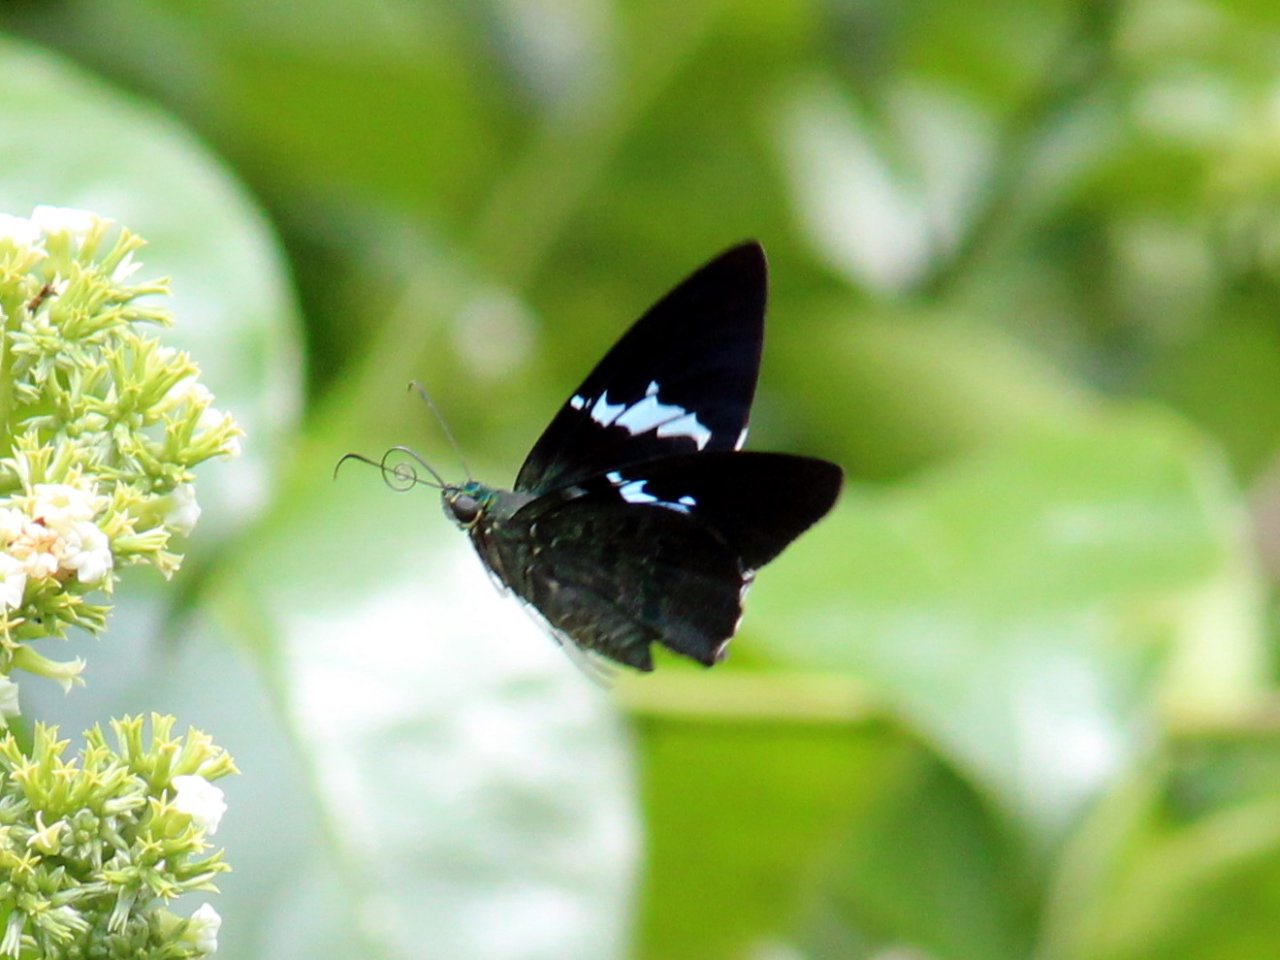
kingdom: Animalia
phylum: Arthropoda
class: Insecta
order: Lepidoptera
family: Hesperiidae
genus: Astraptes
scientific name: Astraptes apastus
